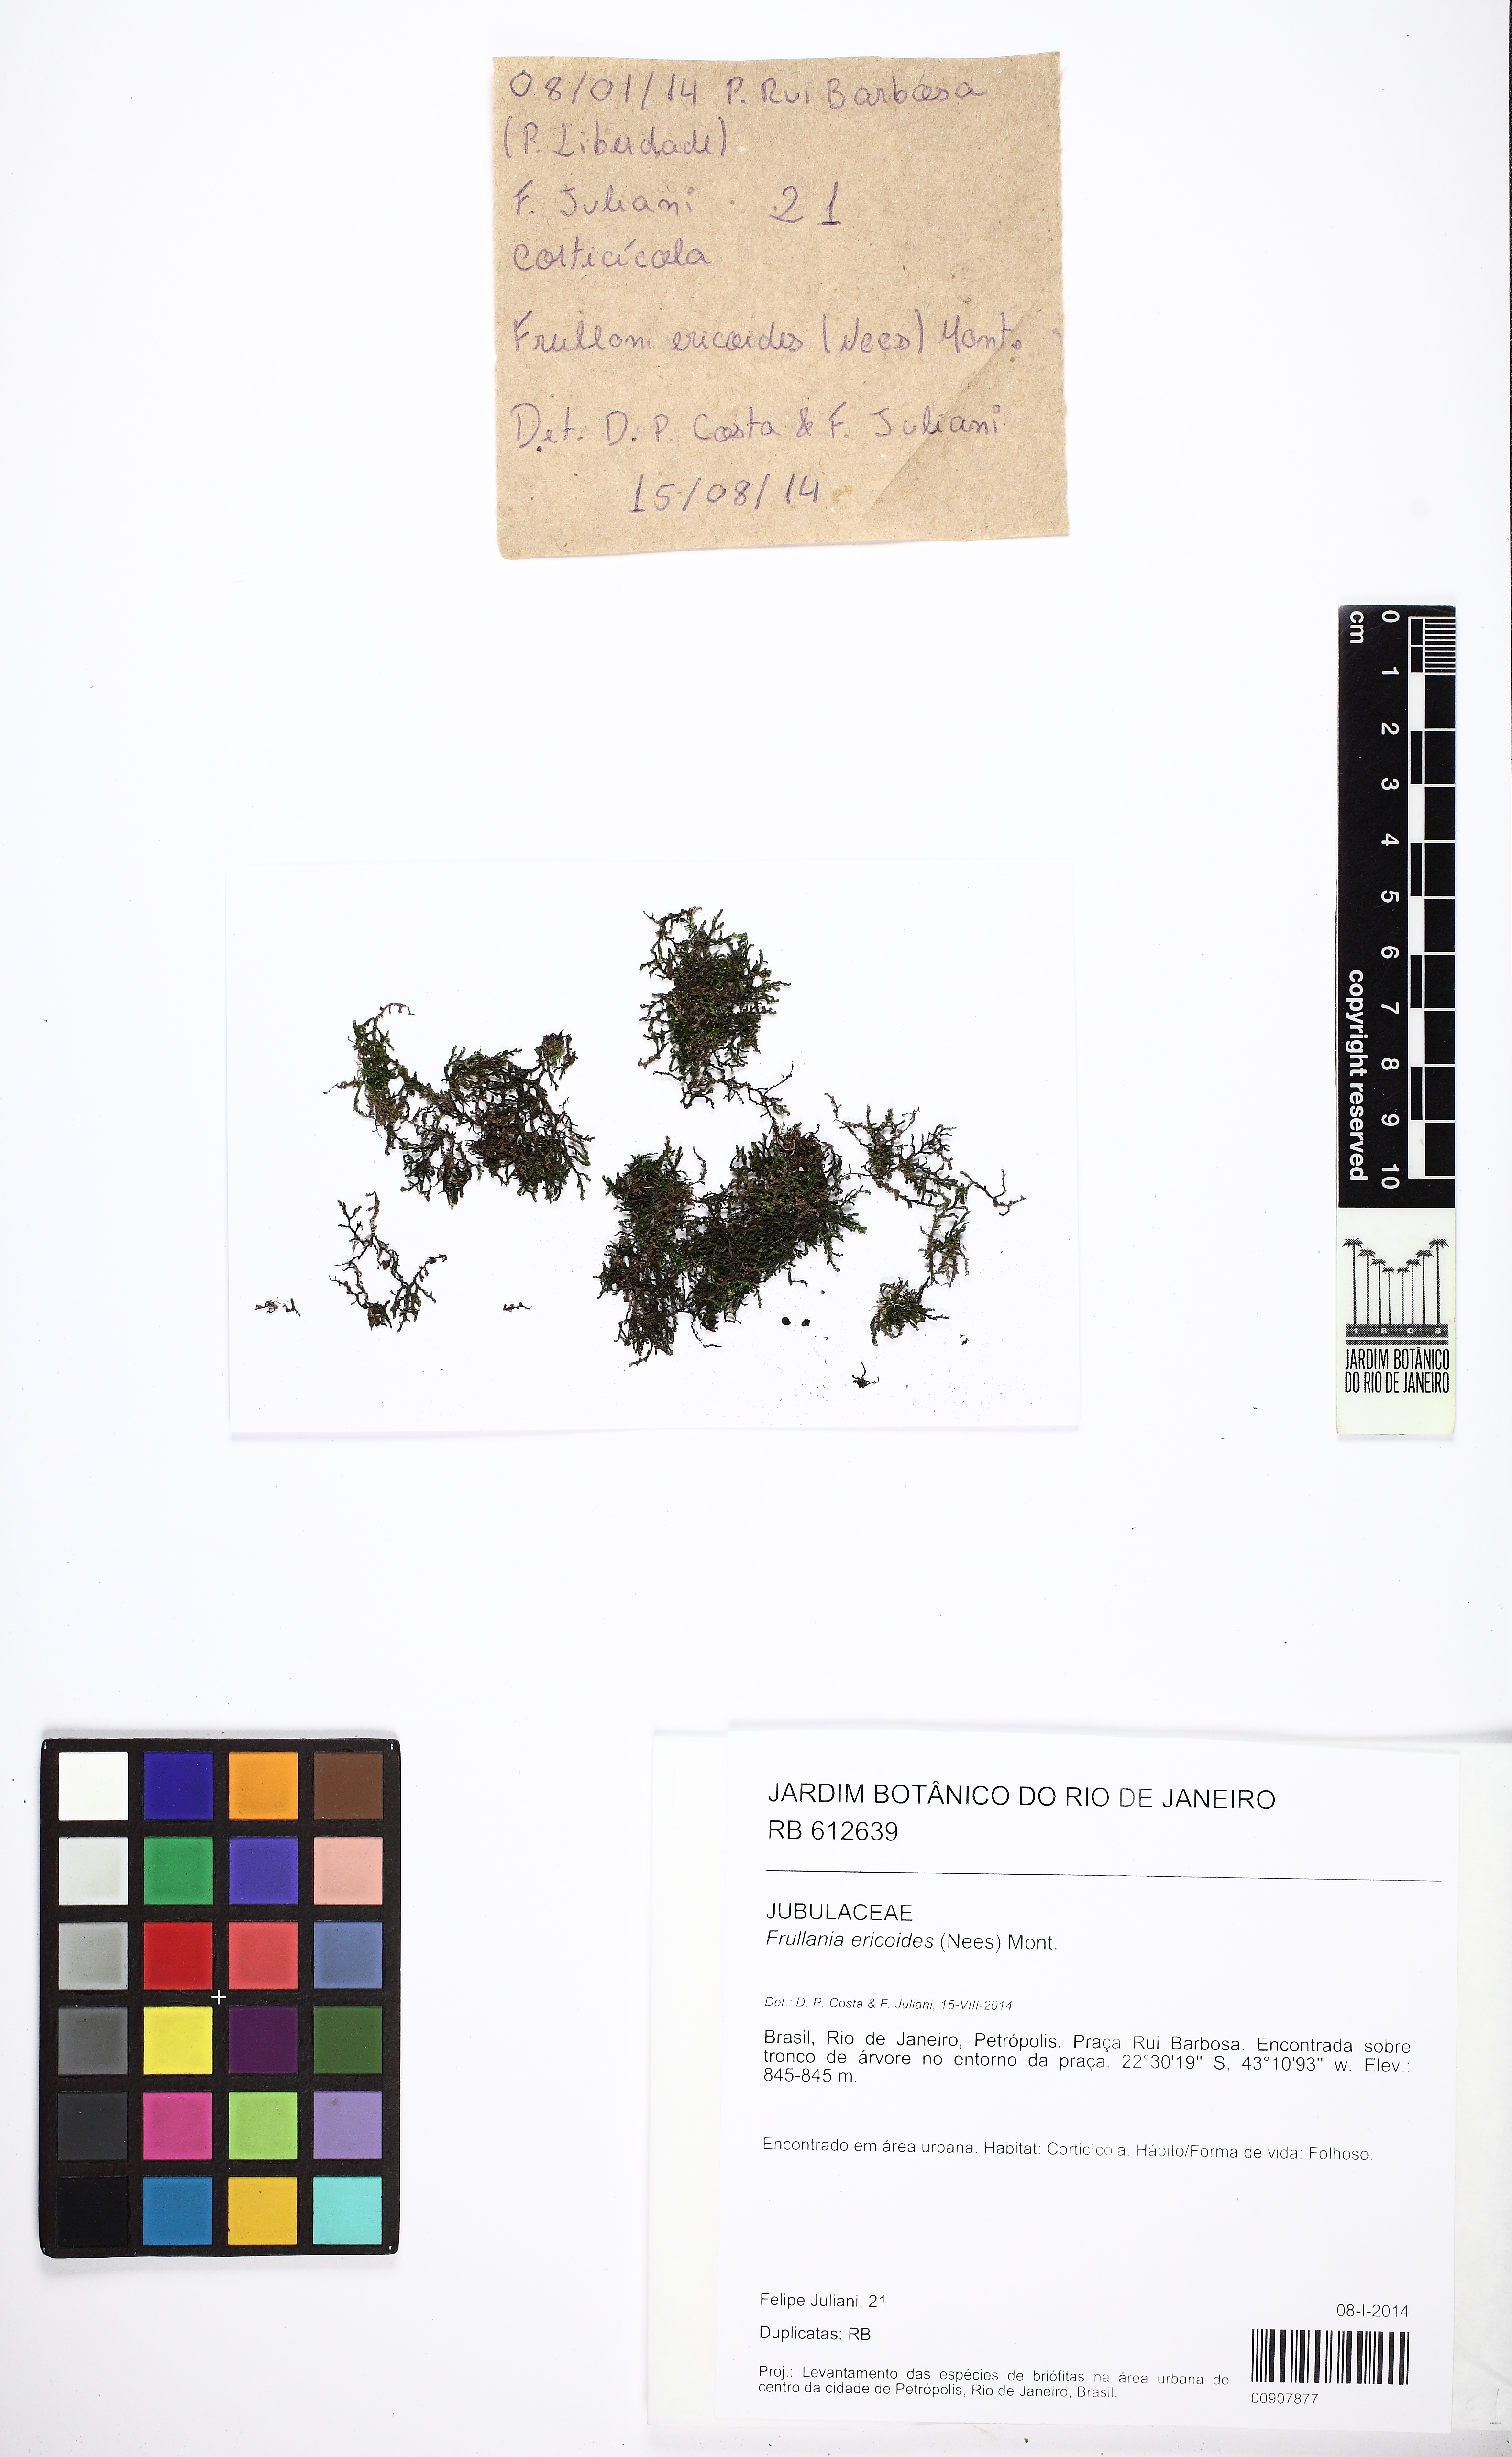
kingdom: Plantae
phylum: Marchantiophyta
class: Jungermanniopsida
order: Porellales
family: Frullaniaceae
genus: Frullania
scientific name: Frullania ericoides
